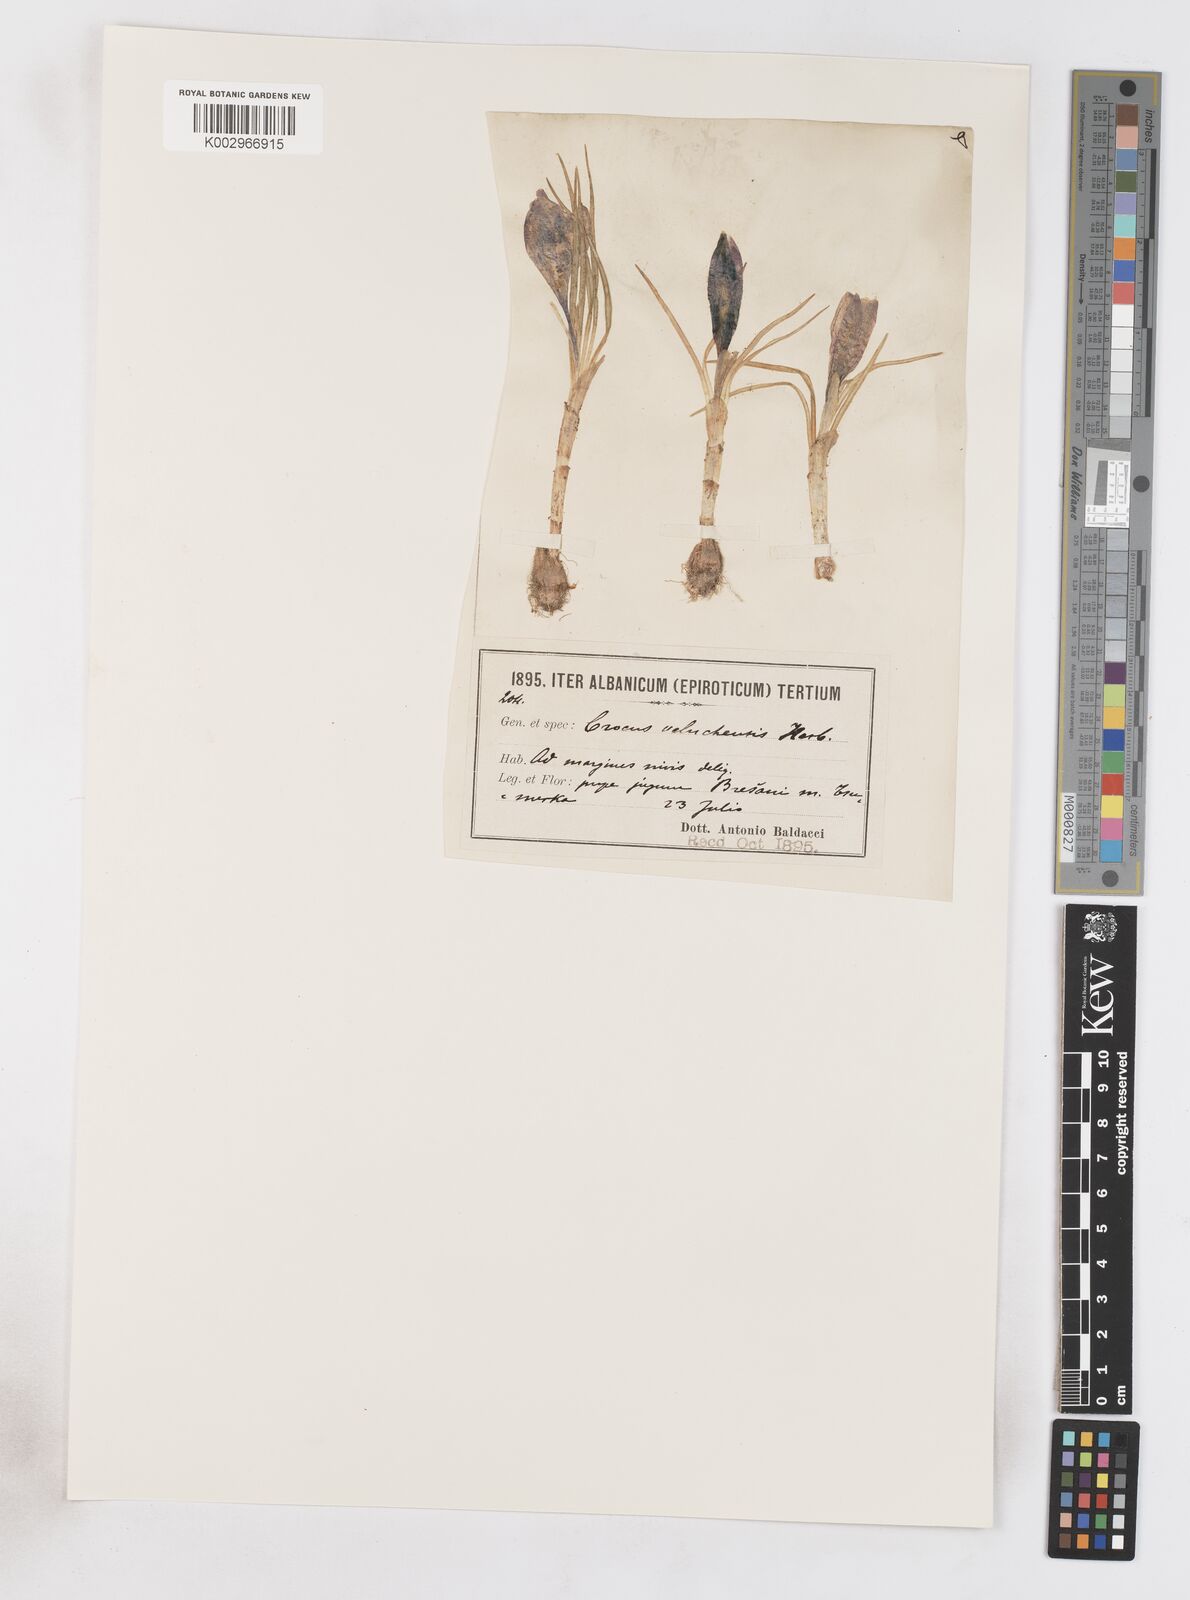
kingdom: Plantae
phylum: Tracheophyta
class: Liliopsida
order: Asparagales
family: Iridaceae
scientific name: Iridaceae
